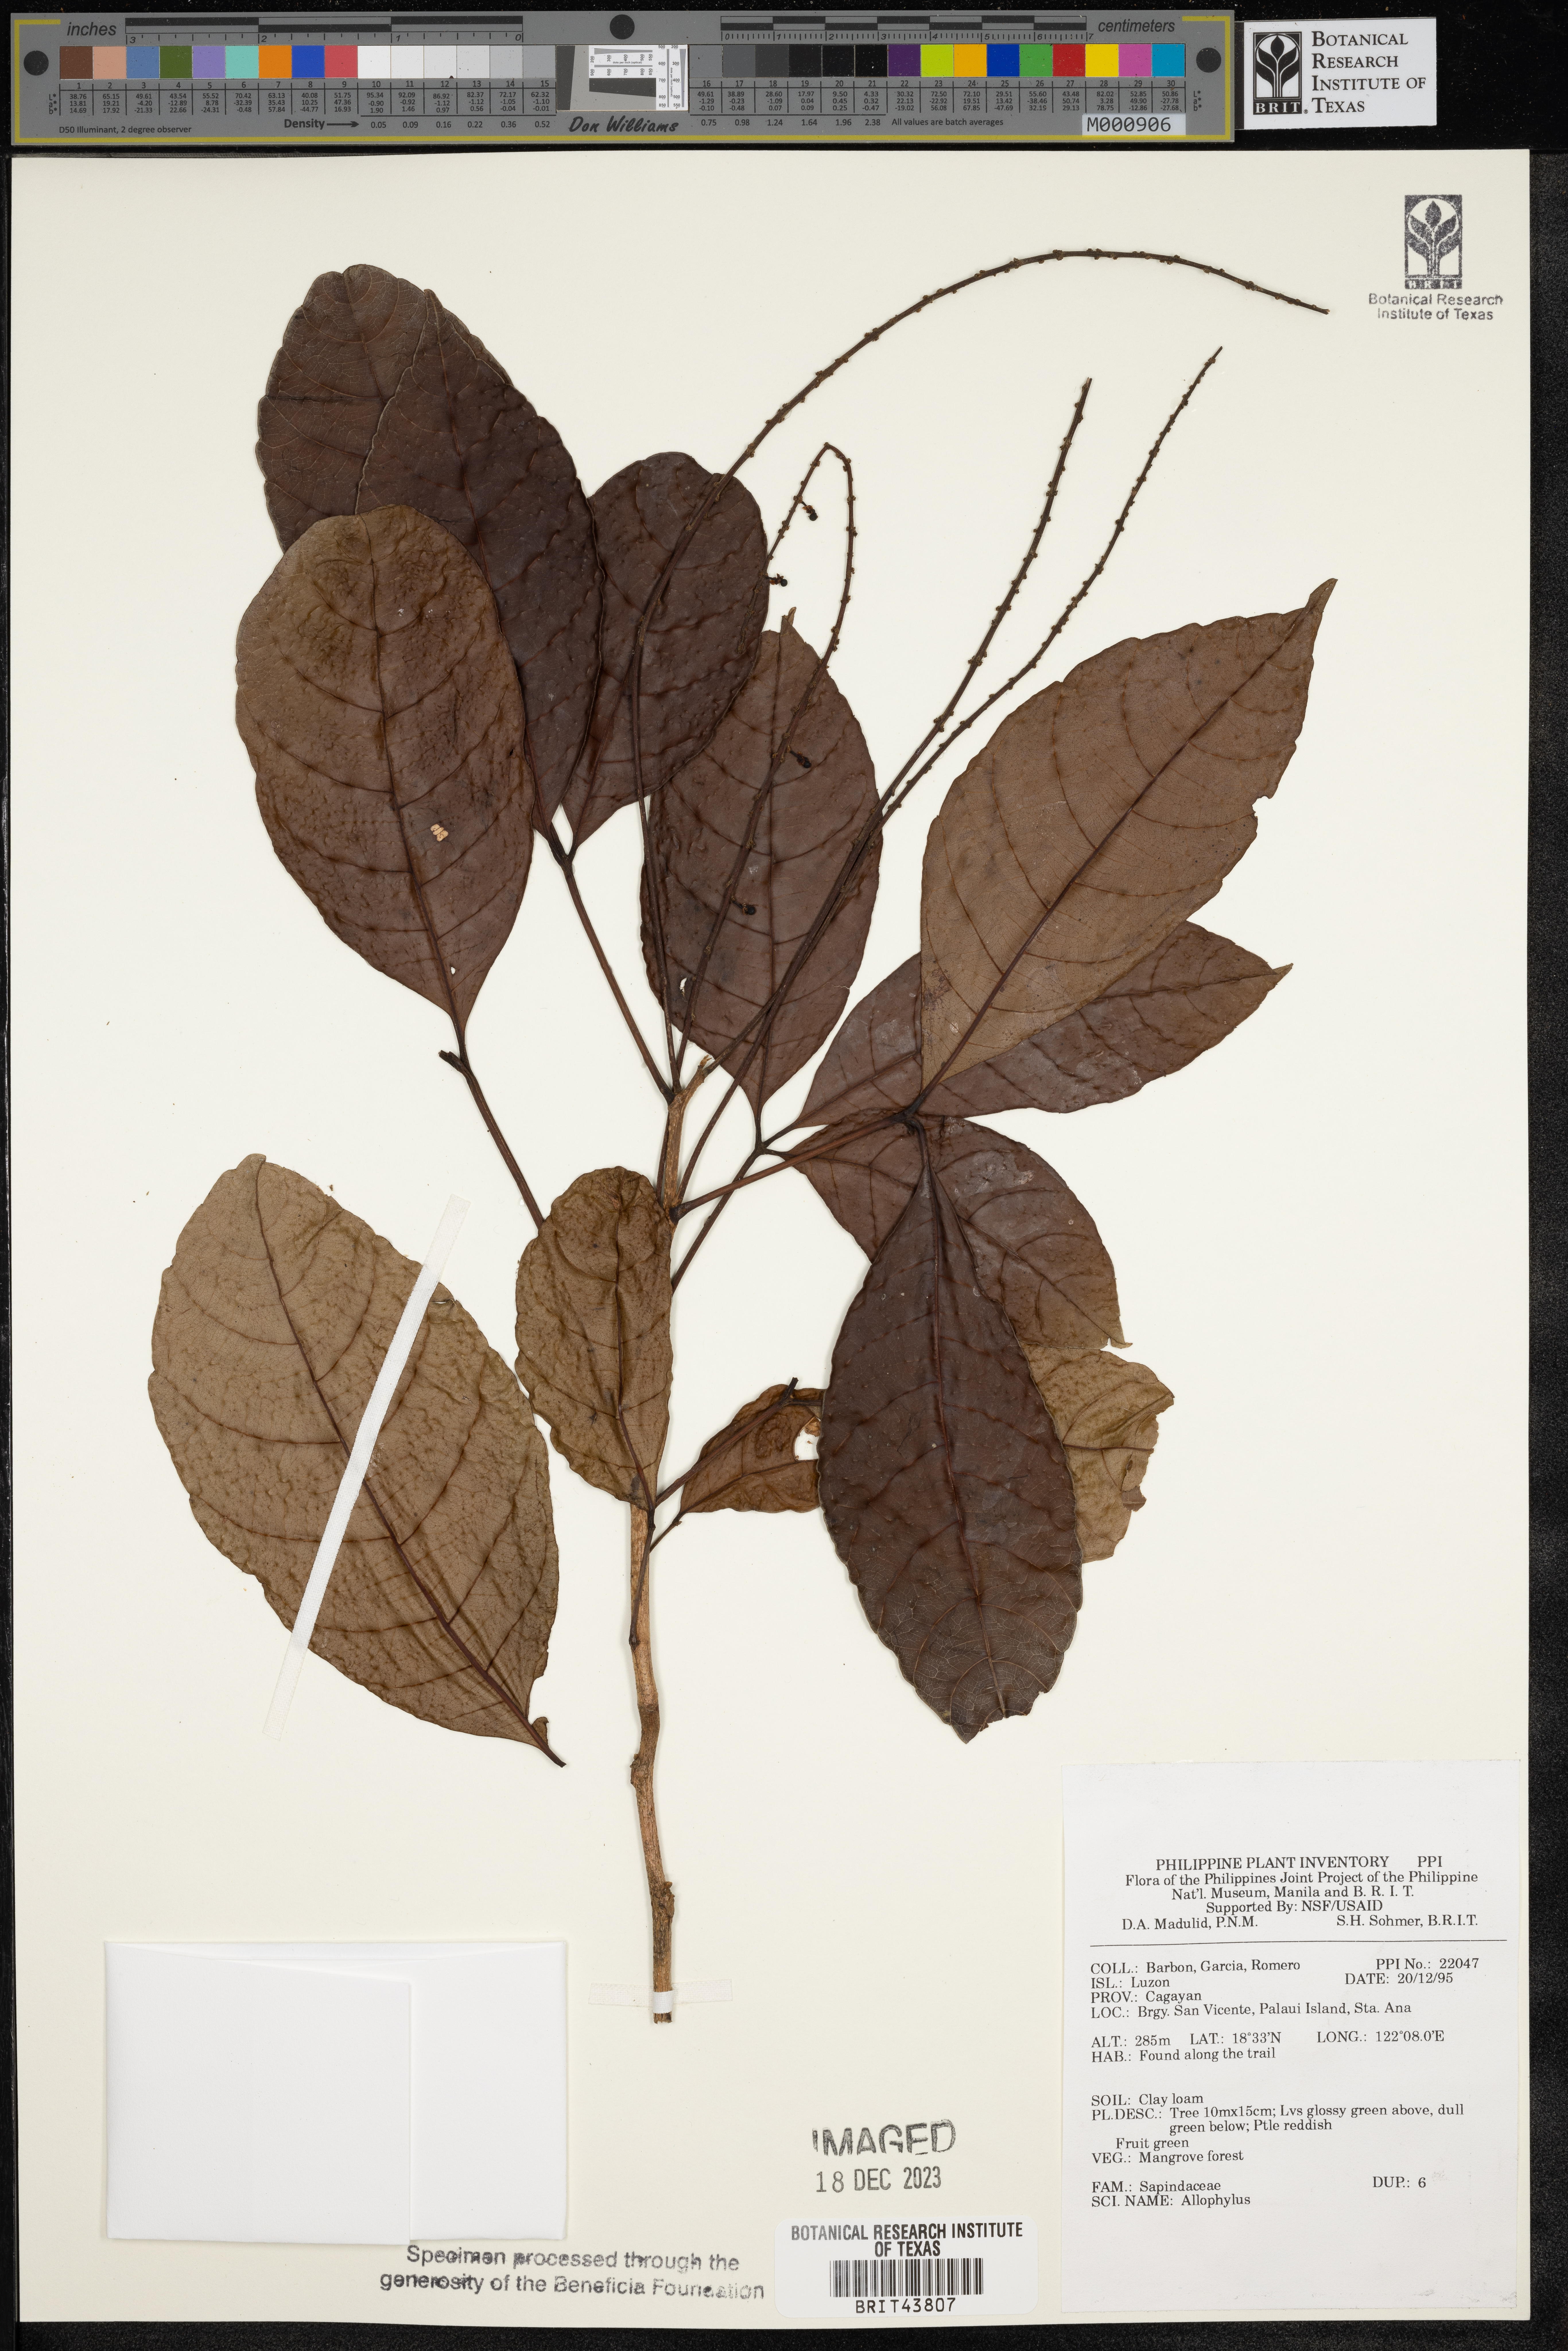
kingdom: Plantae
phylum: Tracheophyta
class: Magnoliopsida
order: Sapindales
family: Sapindaceae
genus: Allophylus
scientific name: Allophylus
